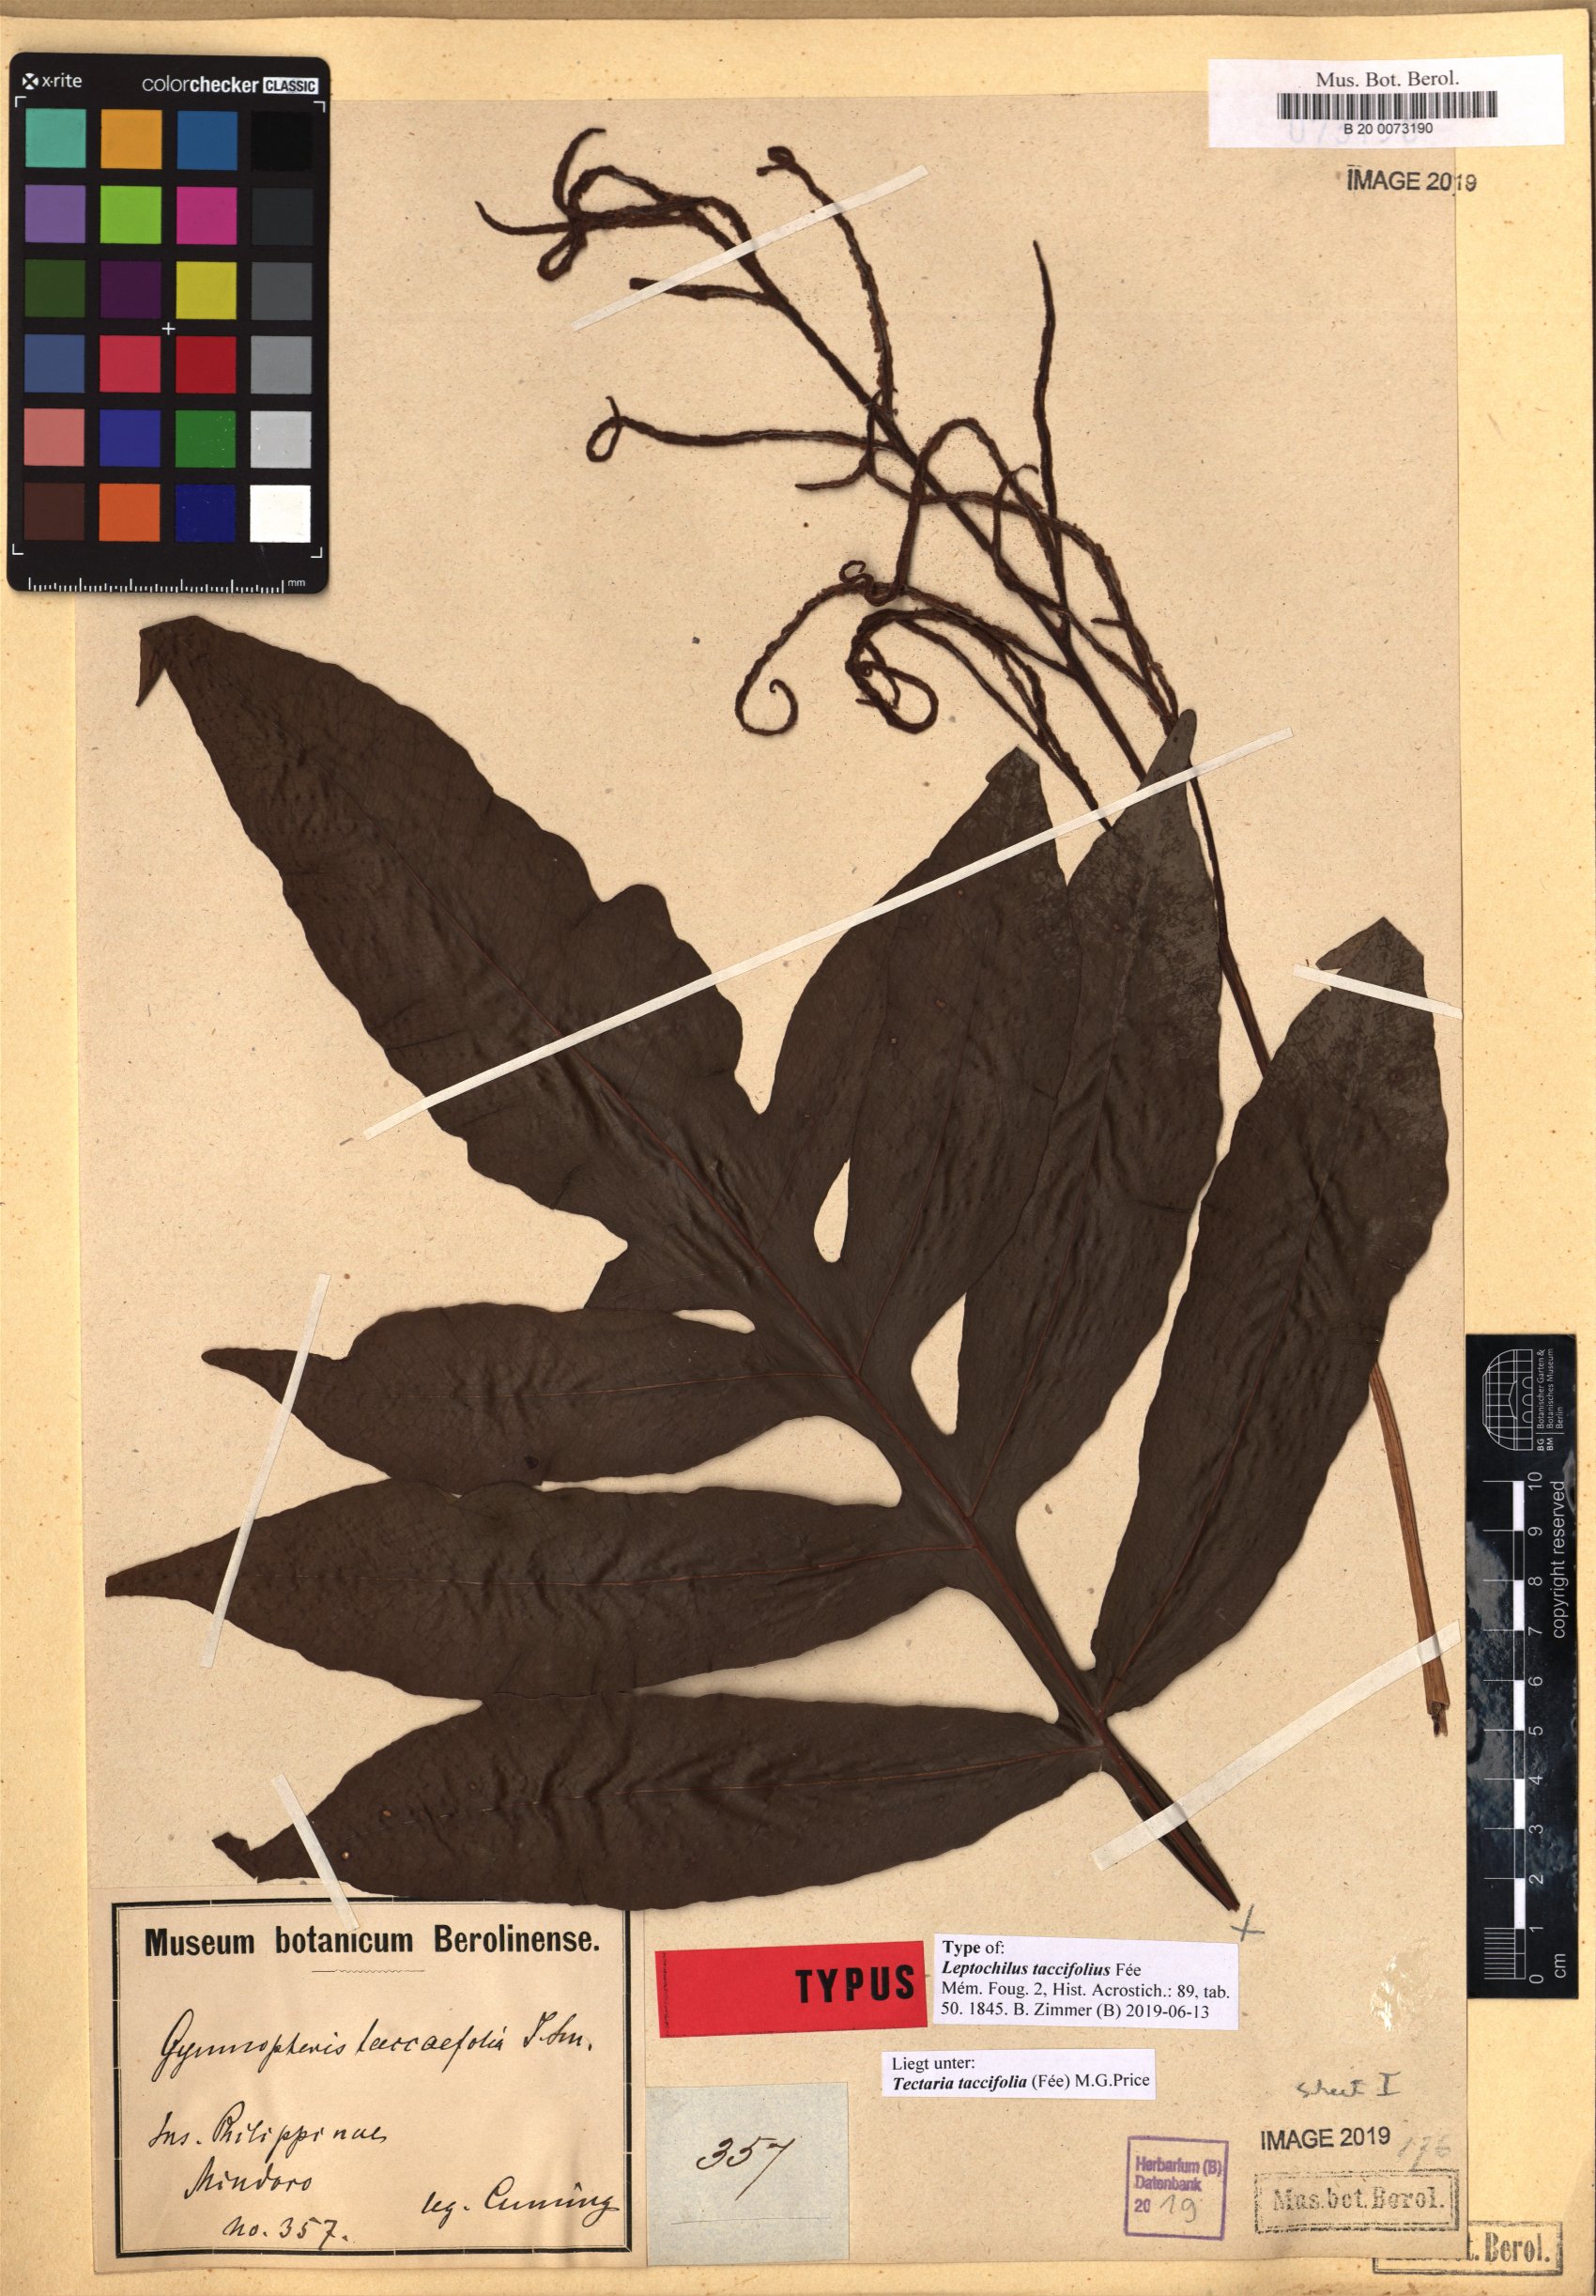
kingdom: Plantae
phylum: Tracheophyta
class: Polypodiopsida
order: Polypodiales
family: Tectariaceae
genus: Tectaria
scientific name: Tectaria taccifolia
